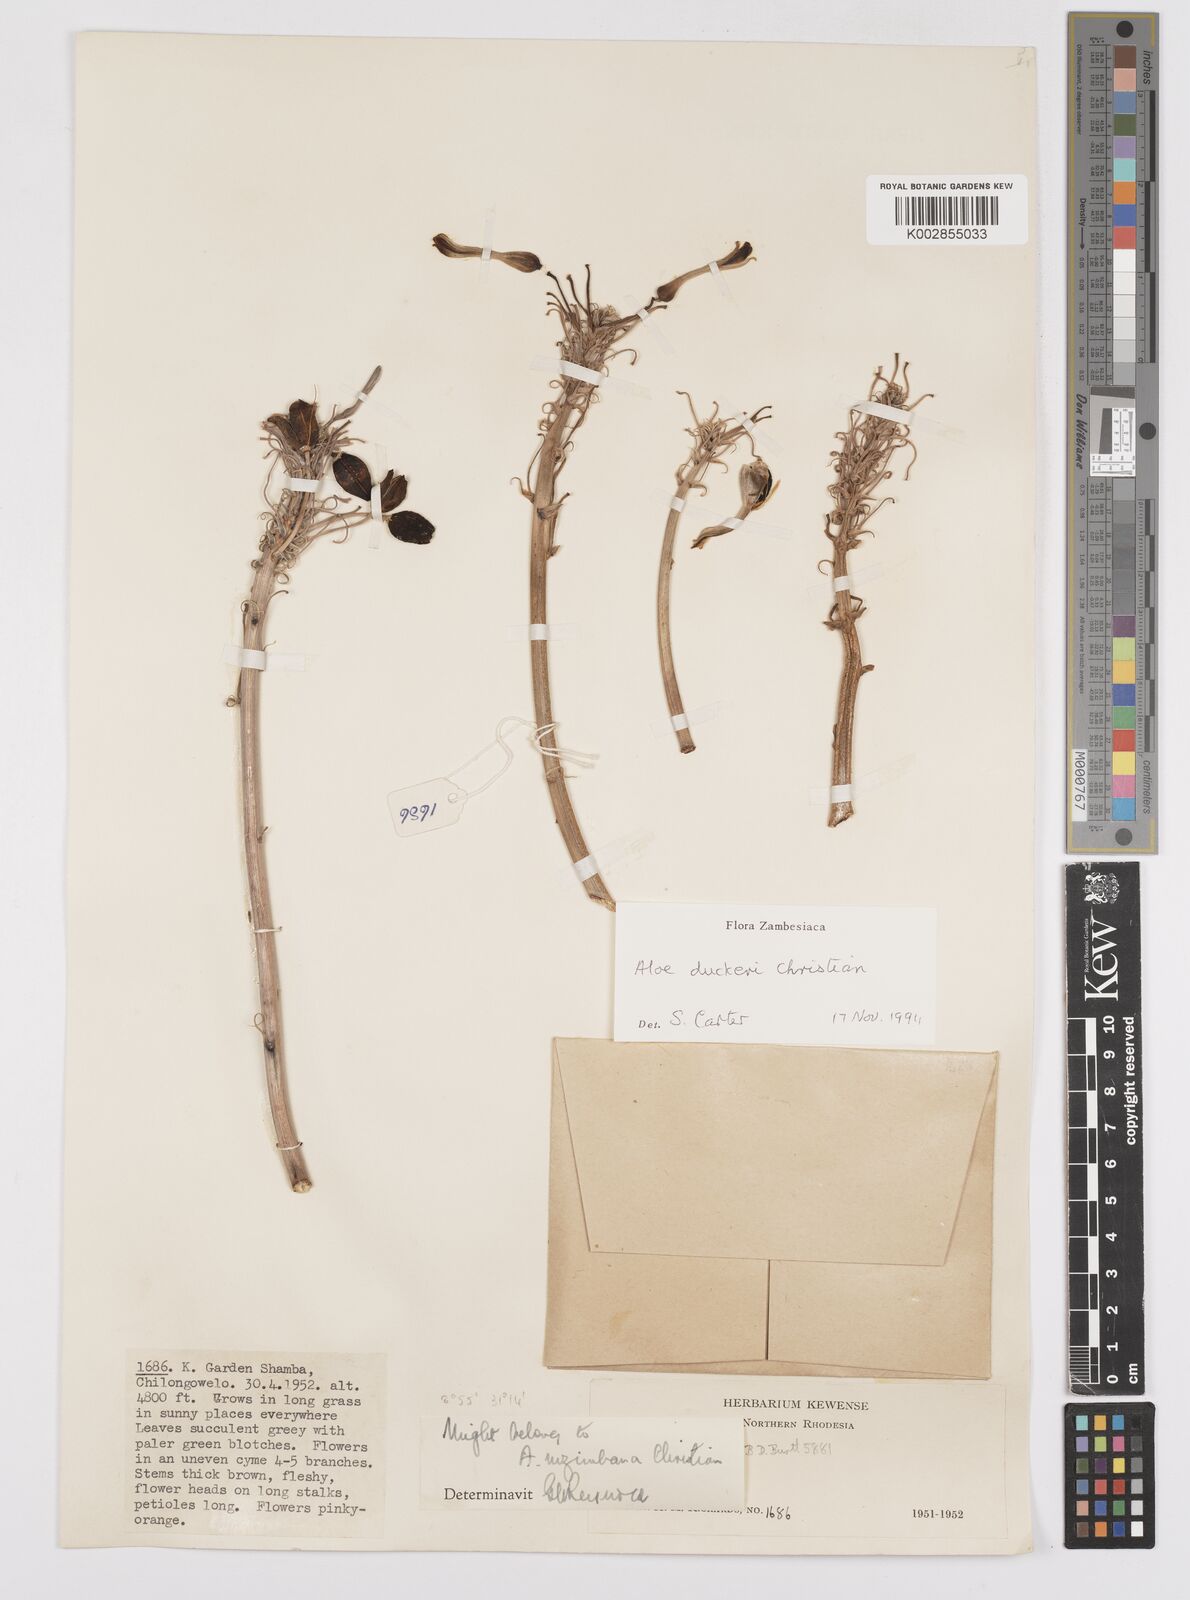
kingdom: Plantae
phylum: Tracheophyta
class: Liliopsida
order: Asparagales
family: Asphodelaceae
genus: Aloe
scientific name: Aloe duckeri
